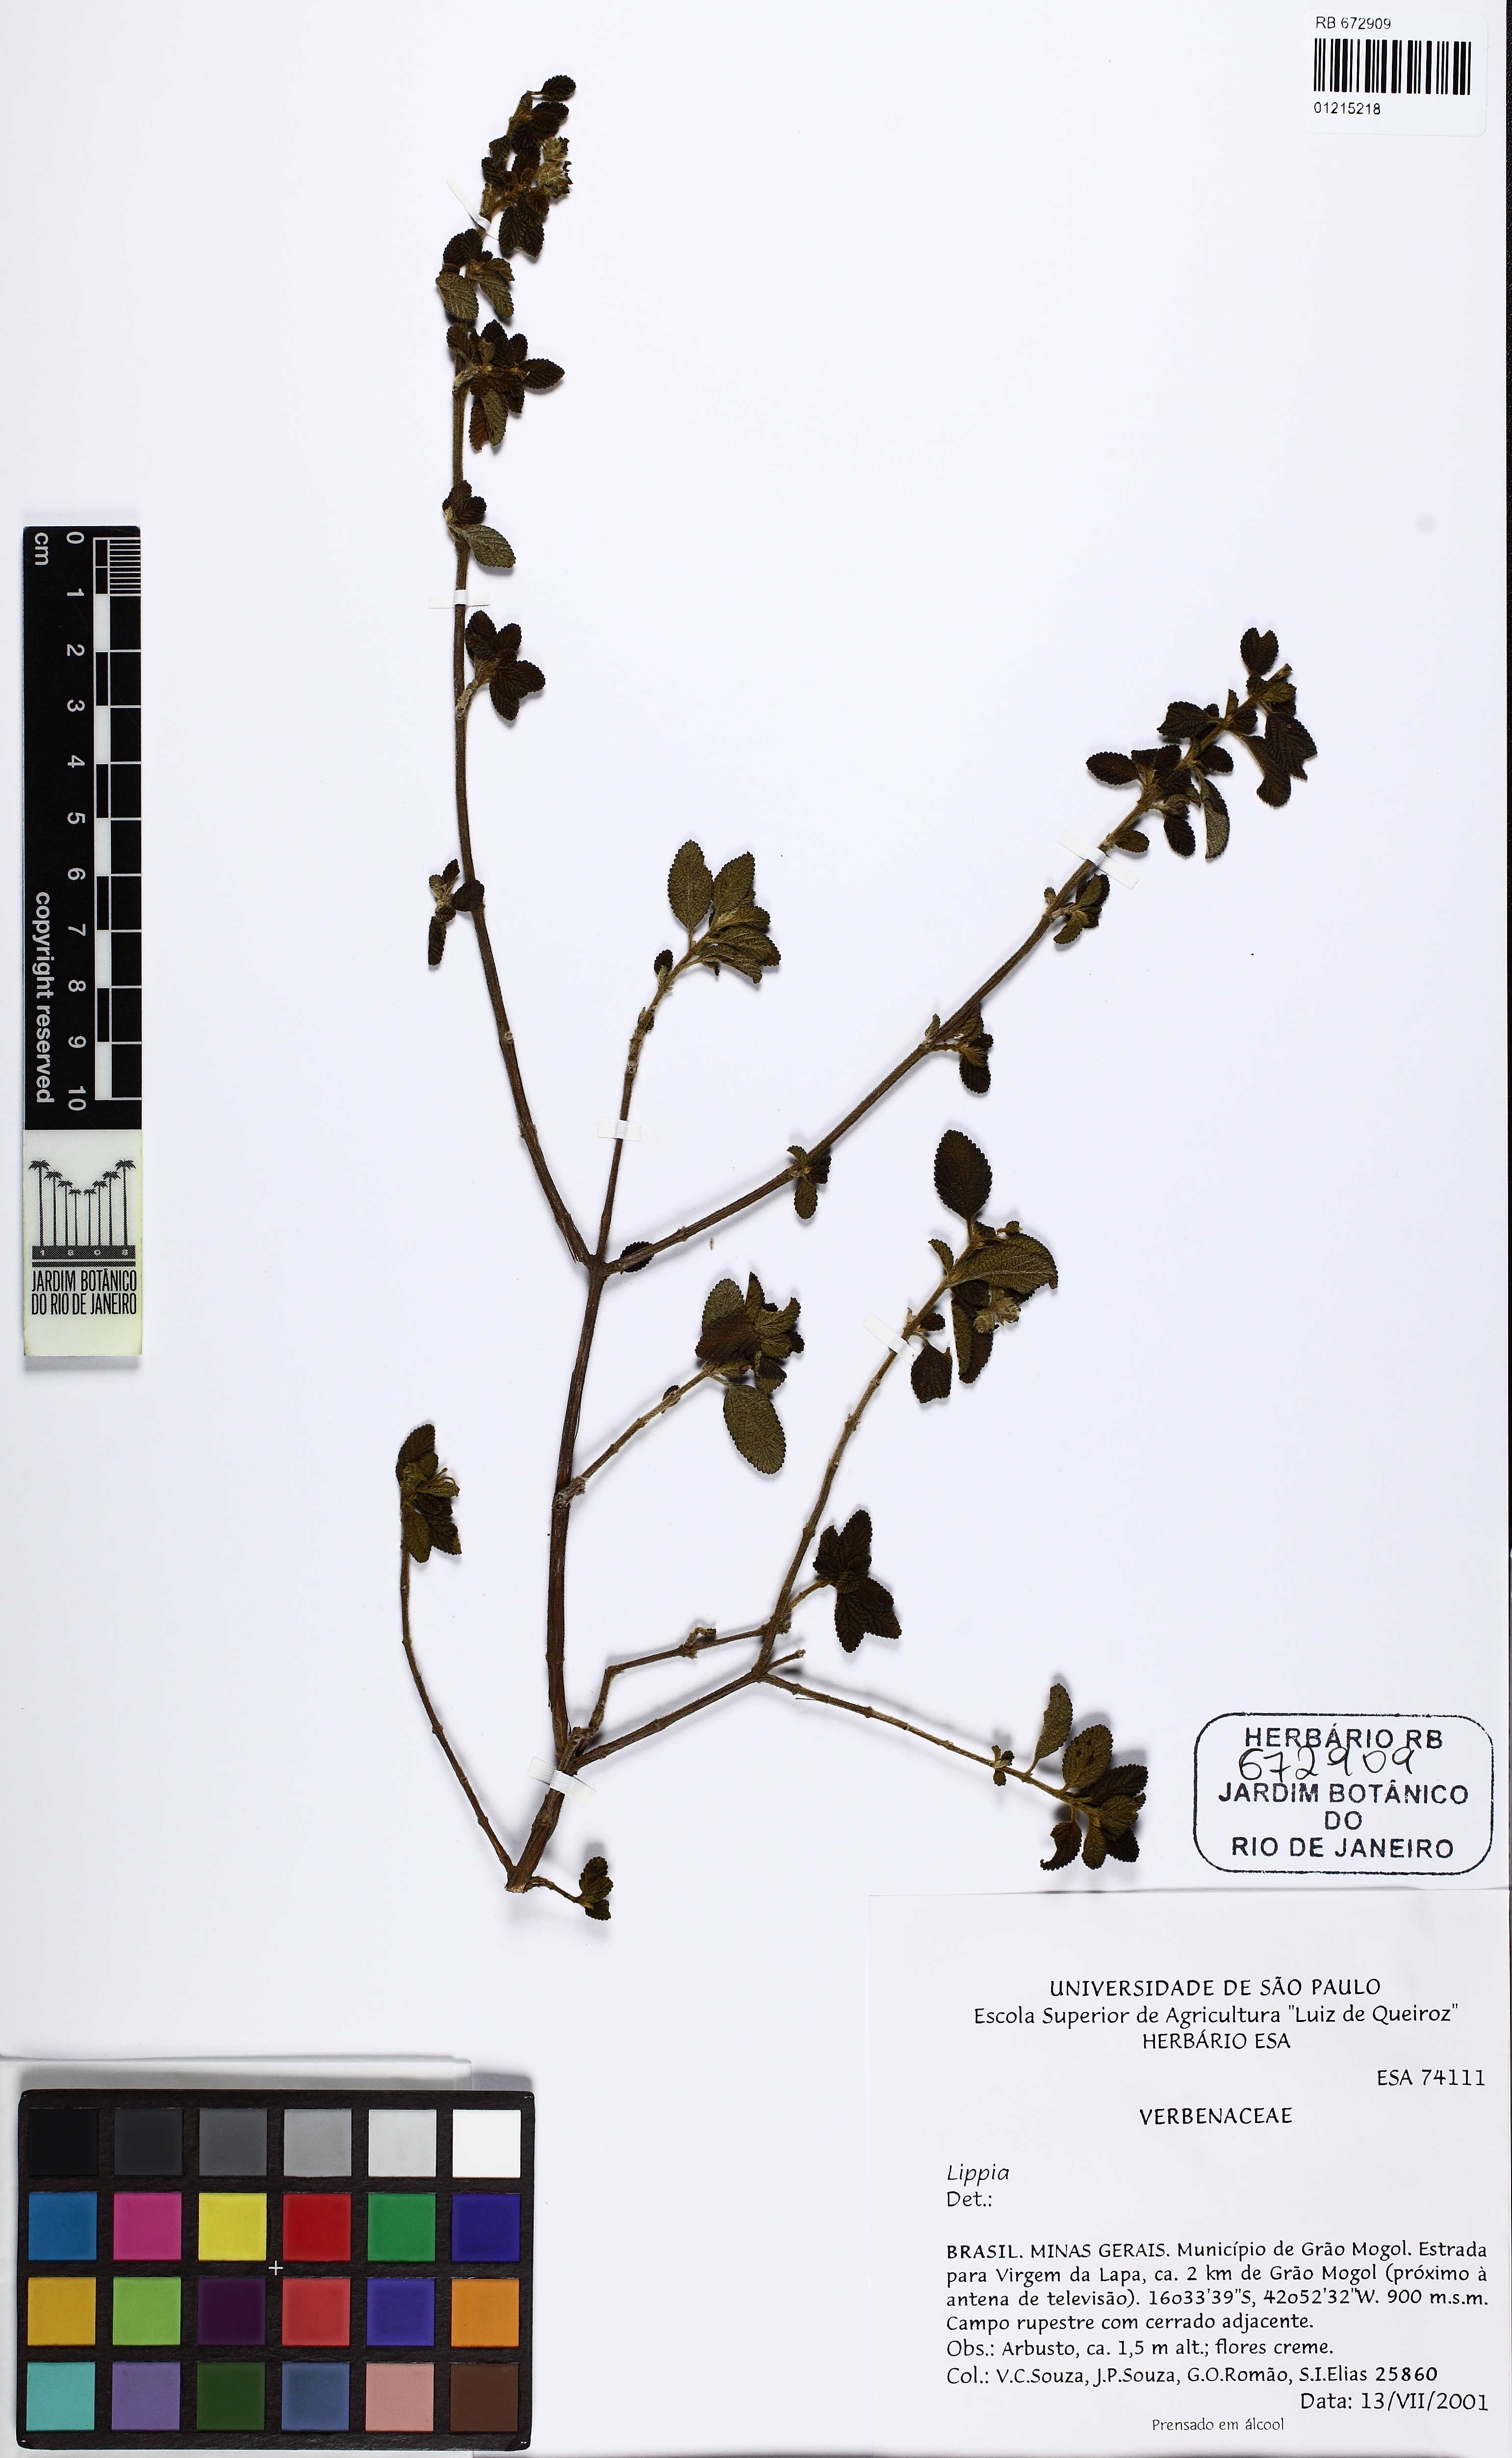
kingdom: Plantae
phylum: Tracheophyta
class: Magnoliopsida
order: Lamiales
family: Verbenaceae
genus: Lippia
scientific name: Lippia
